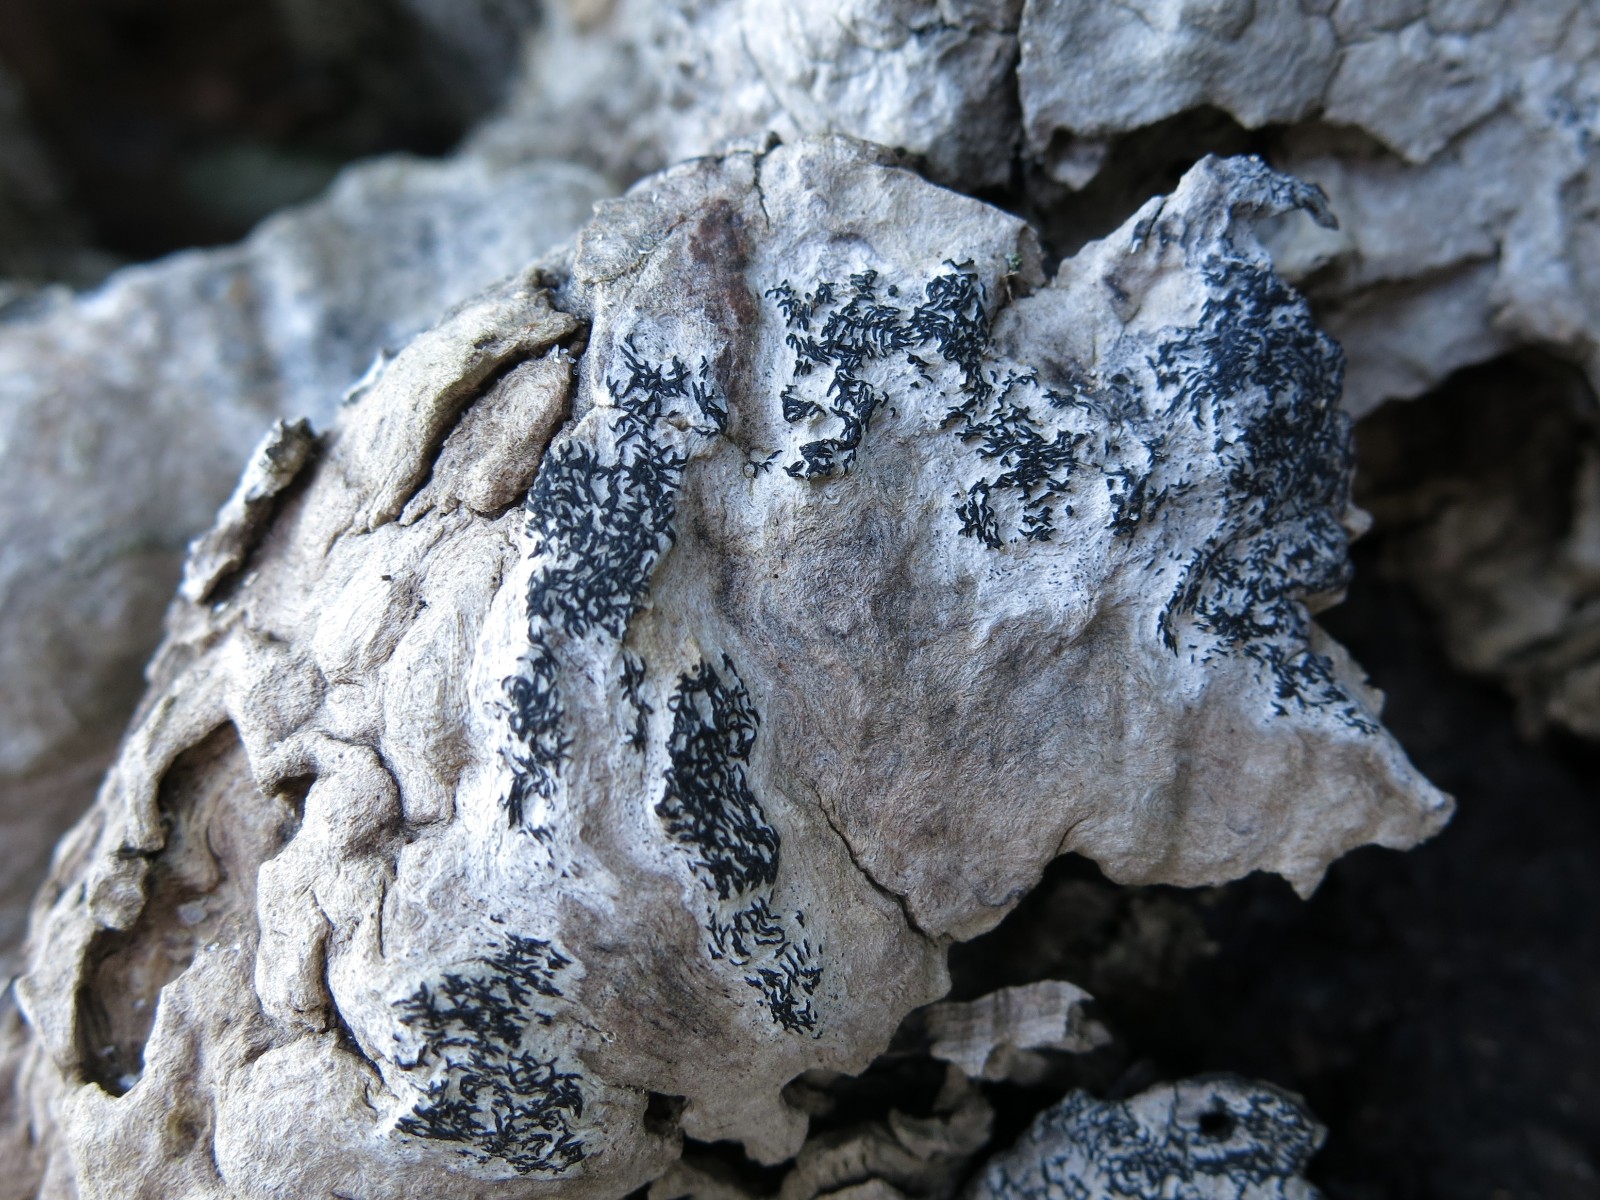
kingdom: Fungi
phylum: Ascomycota
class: Arthoniomycetes
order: Arthoniales
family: Arthoniaceae
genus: Arthonia
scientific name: Arthonia atra
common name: sort bogstavlav
